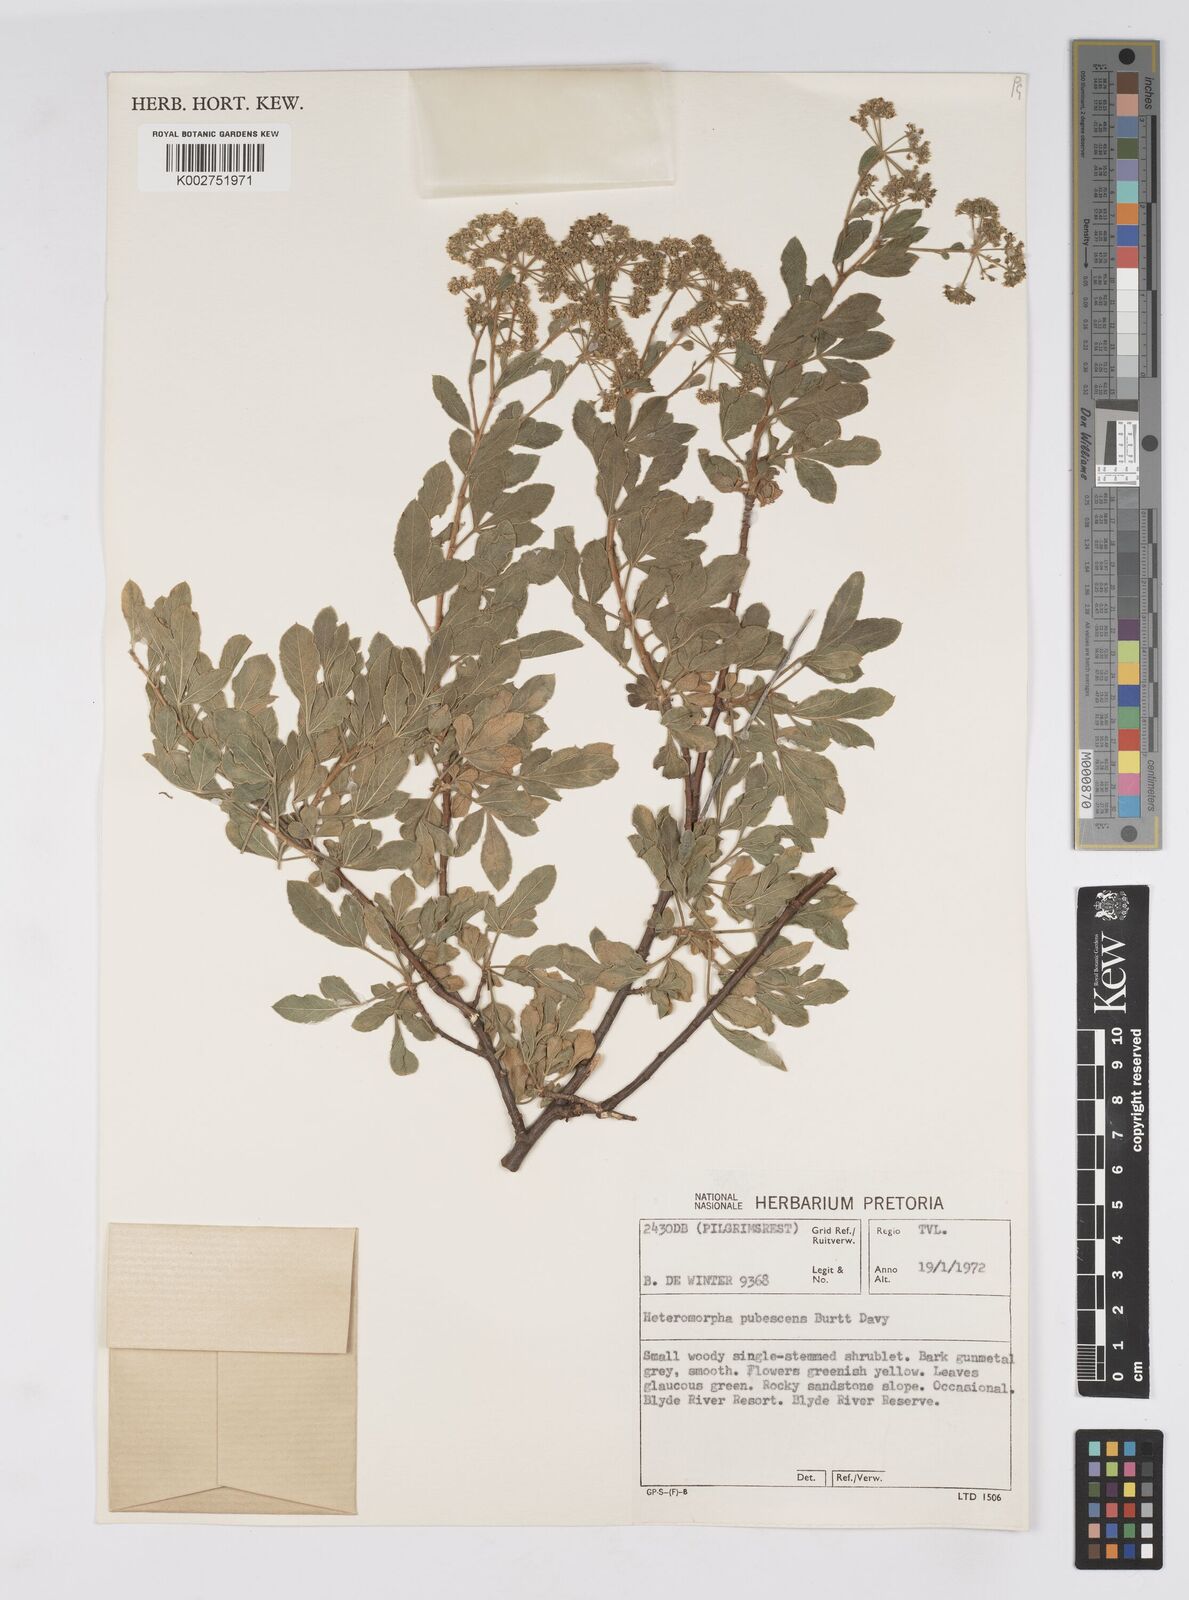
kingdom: Plantae
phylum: Tracheophyta
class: Magnoliopsida
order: Apiales
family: Apiaceae
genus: Heteromorpha
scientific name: Heteromorpha pubescens
